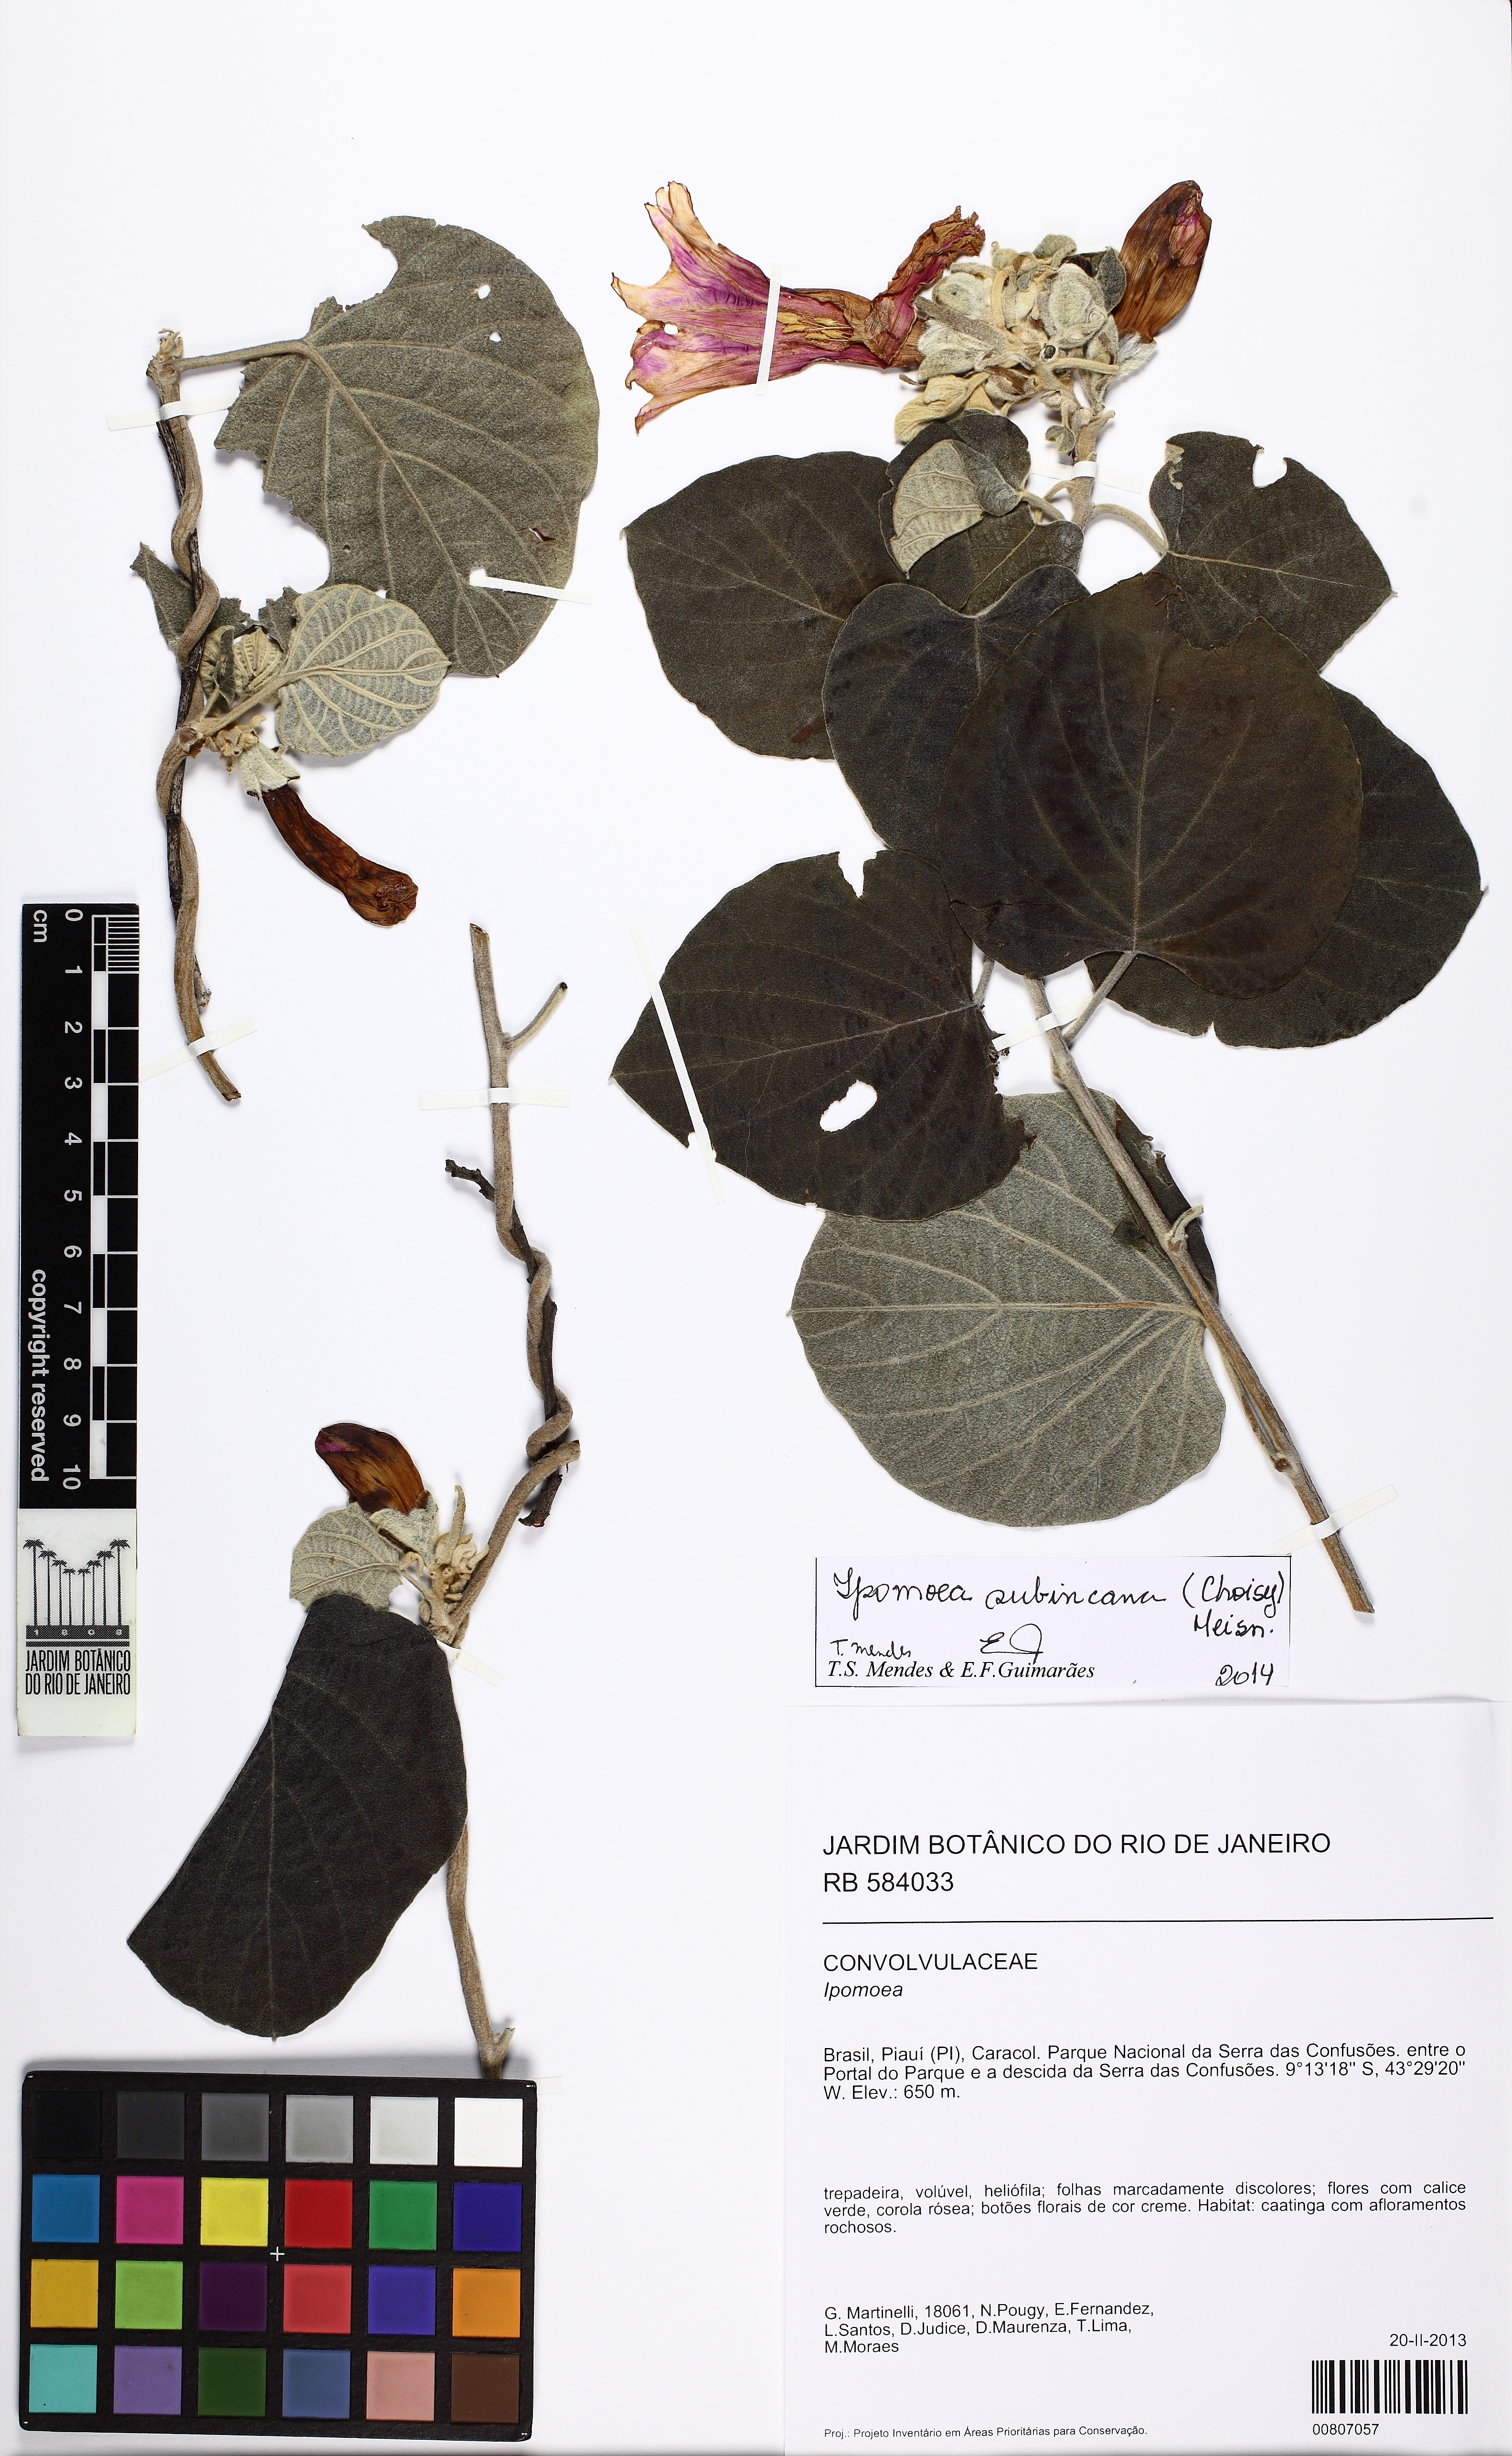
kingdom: Plantae
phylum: Tracheophyta
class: Magnoliopsida
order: Solanales
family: Convolvulaceae
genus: Ipomoea
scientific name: Ipomoea brasiliana
